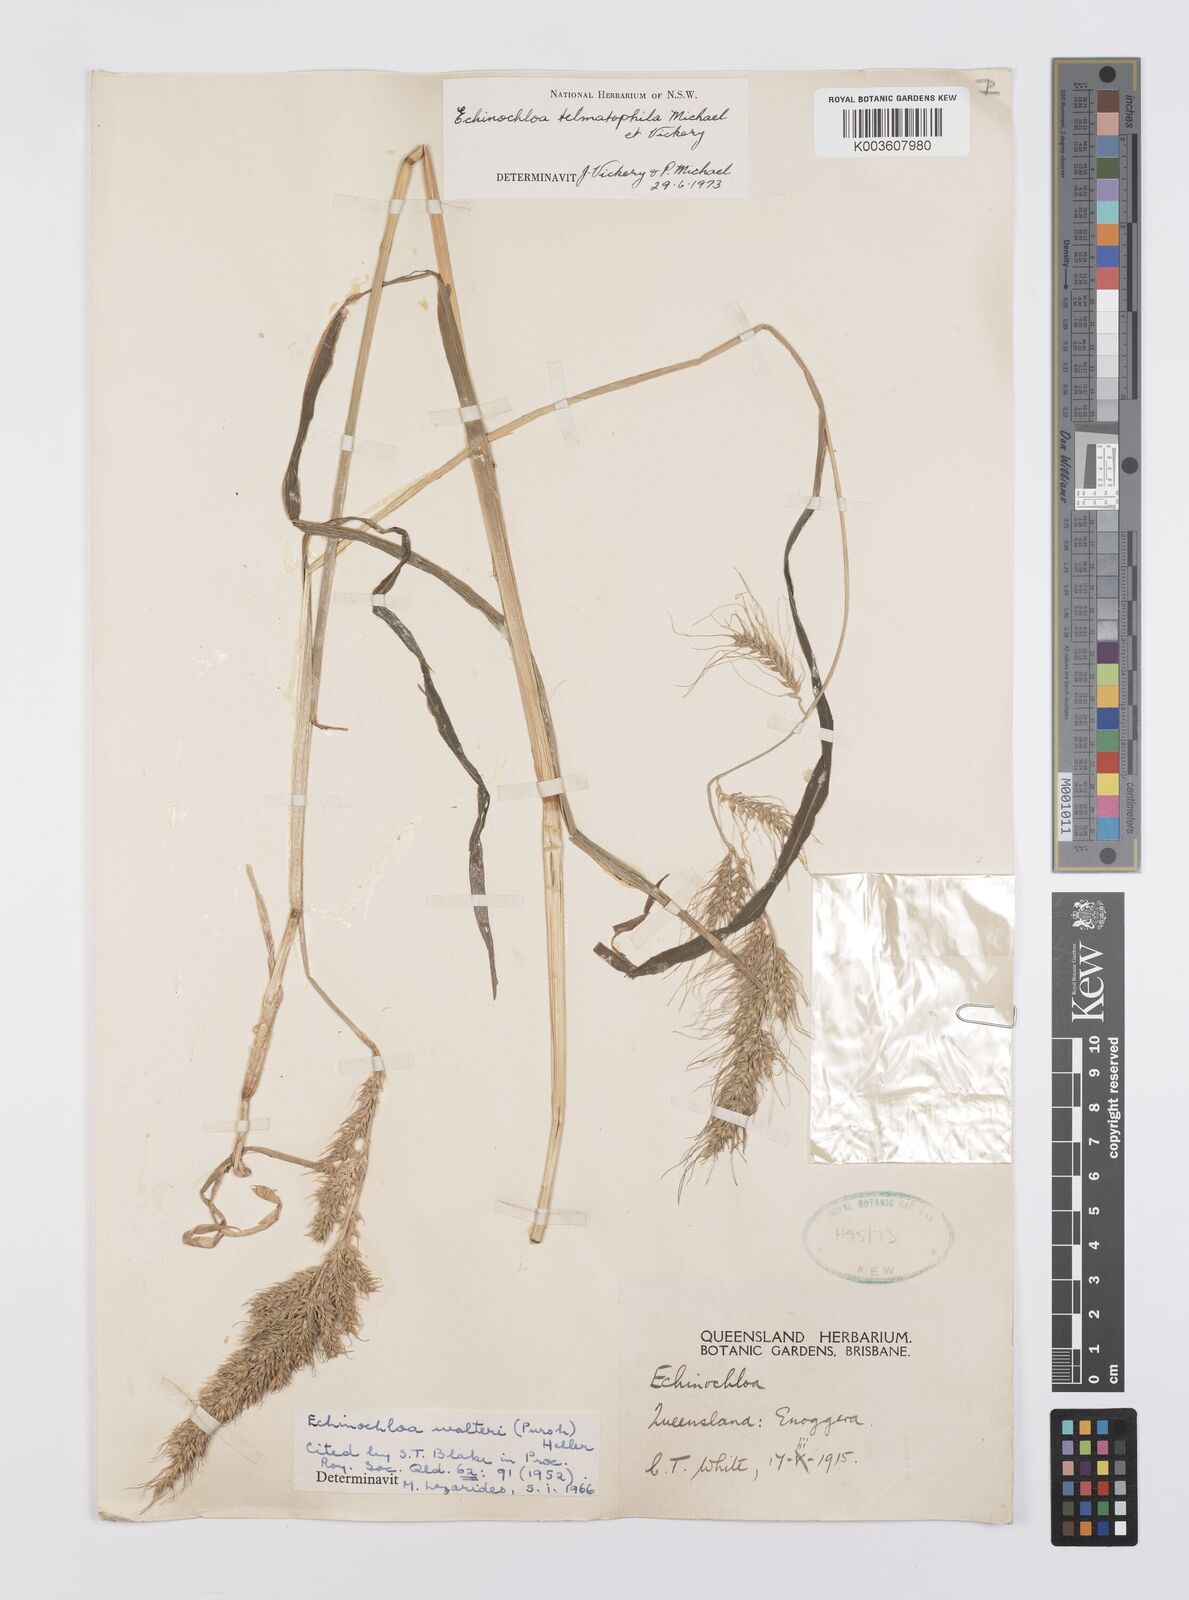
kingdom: Plantae
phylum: Tracheophyta
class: Liliopsida
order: Poales
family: Poaceae
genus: Echinochloa
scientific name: Echinochloa crus-galli
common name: Cockspur
